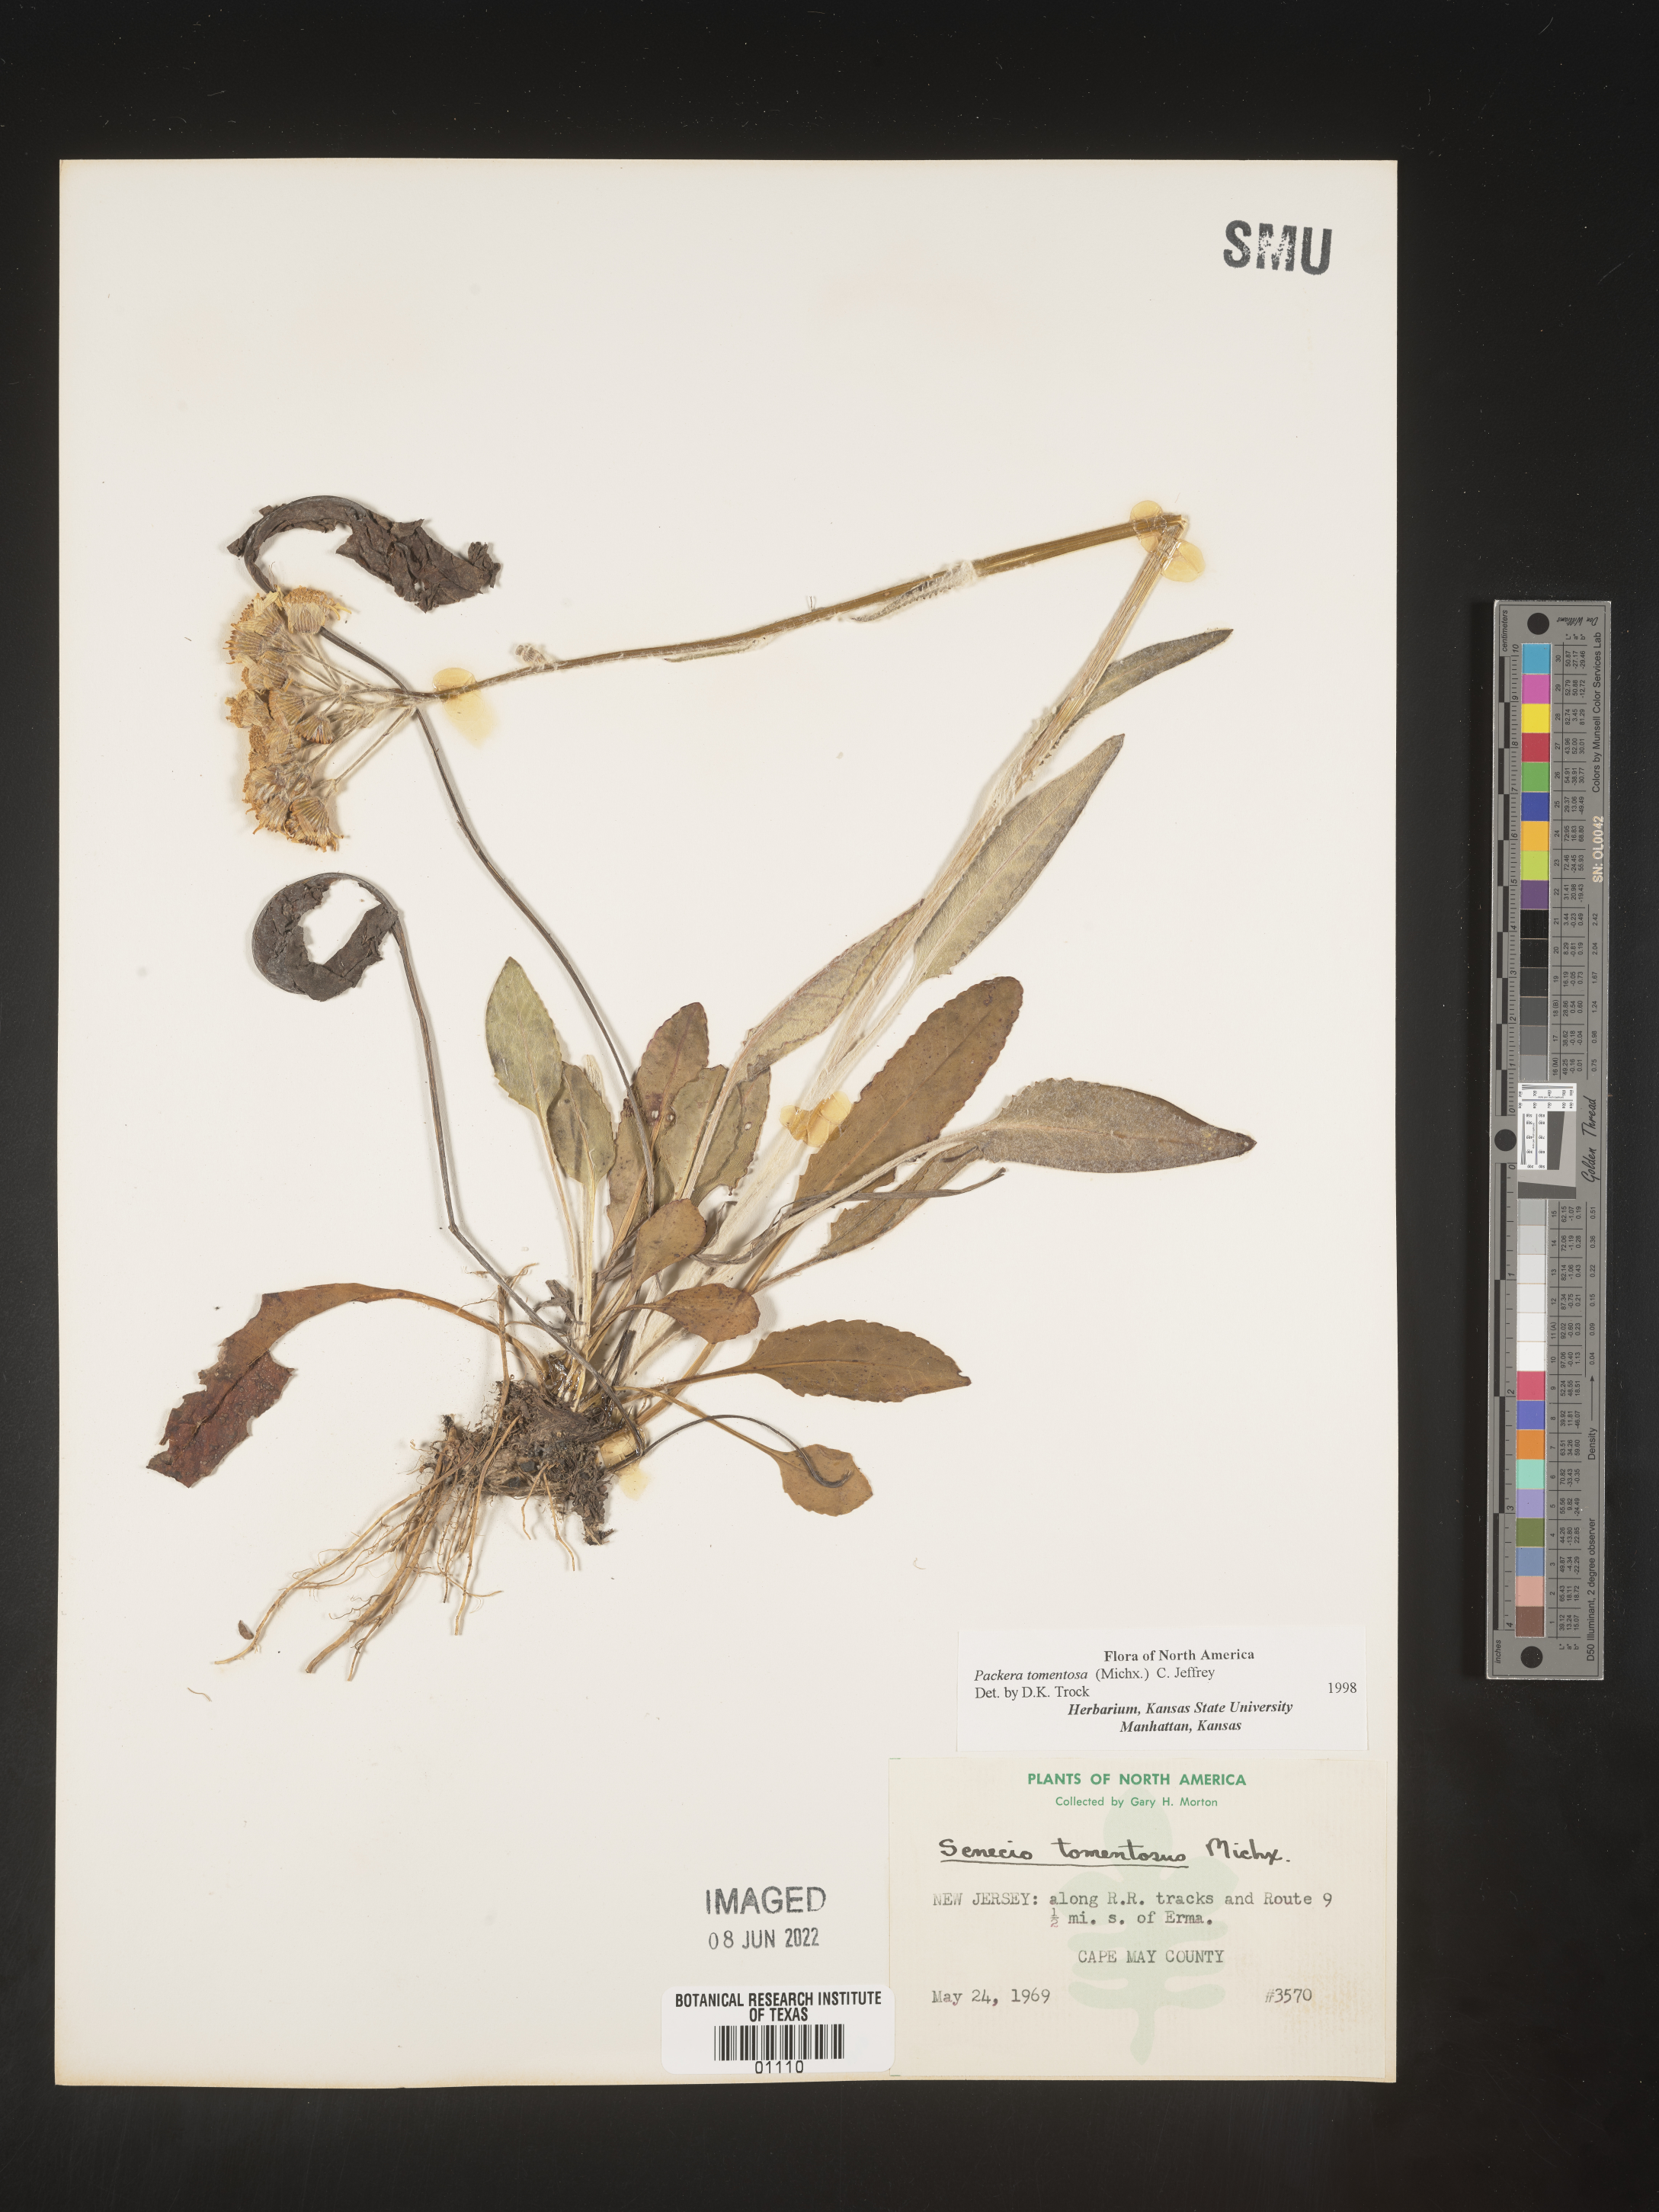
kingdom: Plantae
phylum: Tracheophyta
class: Magnoliopsida
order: Asterales
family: Asteraceae
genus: Packera
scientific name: Packera dubia
